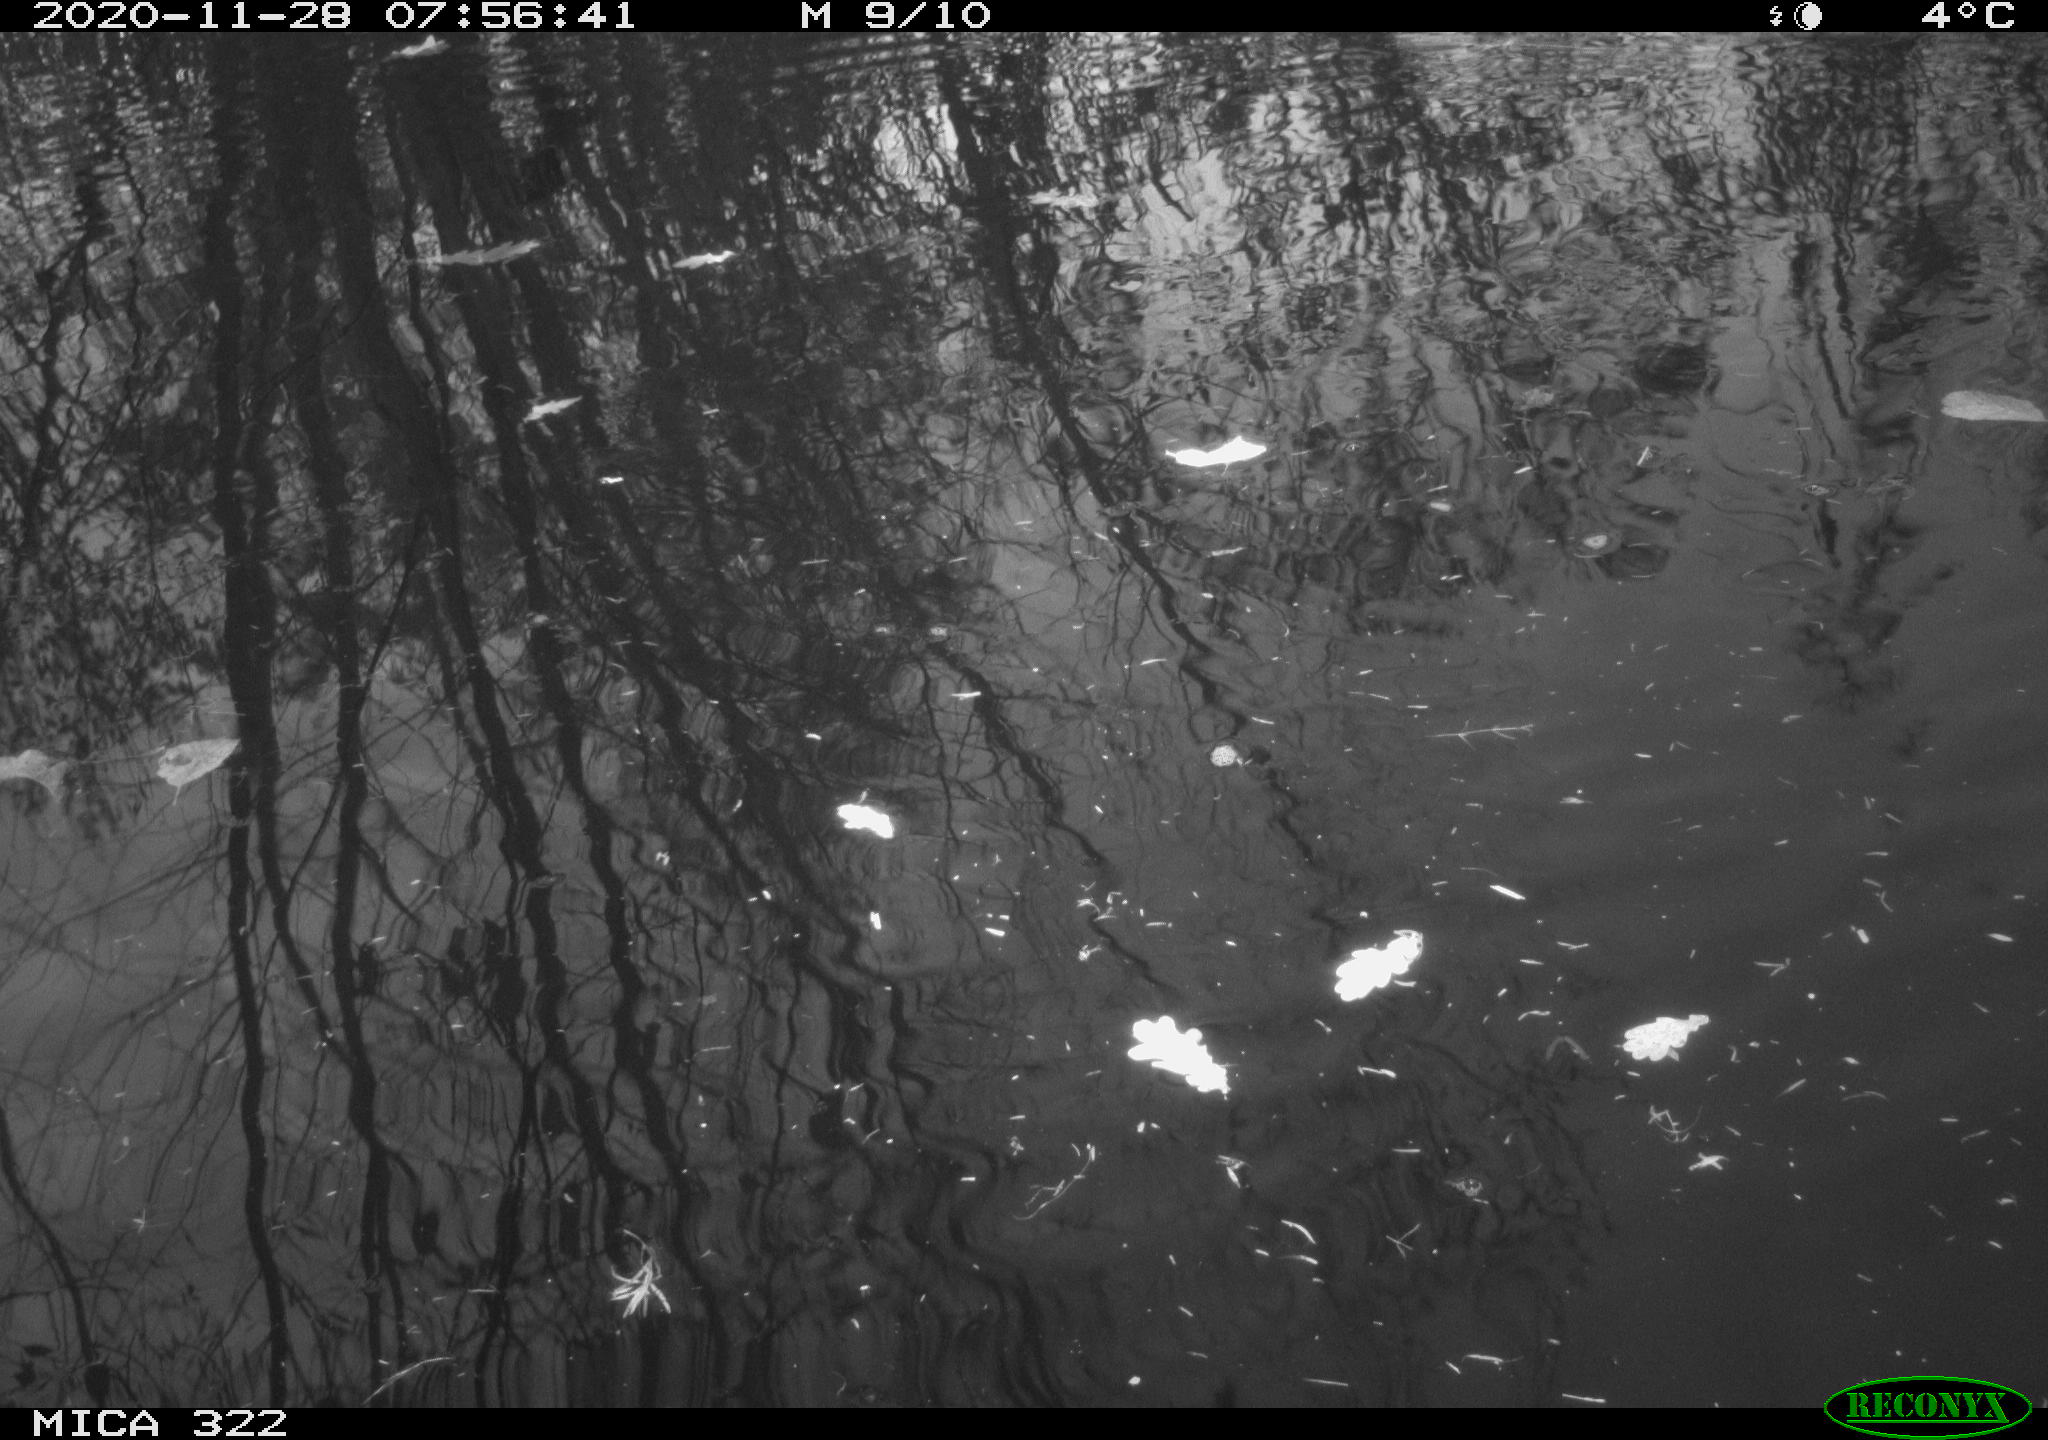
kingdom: Animalia
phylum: Chordata
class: Aves
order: Gruiformes
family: Rallidae
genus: Fulica
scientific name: Fulica atra
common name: Eurasian coot
